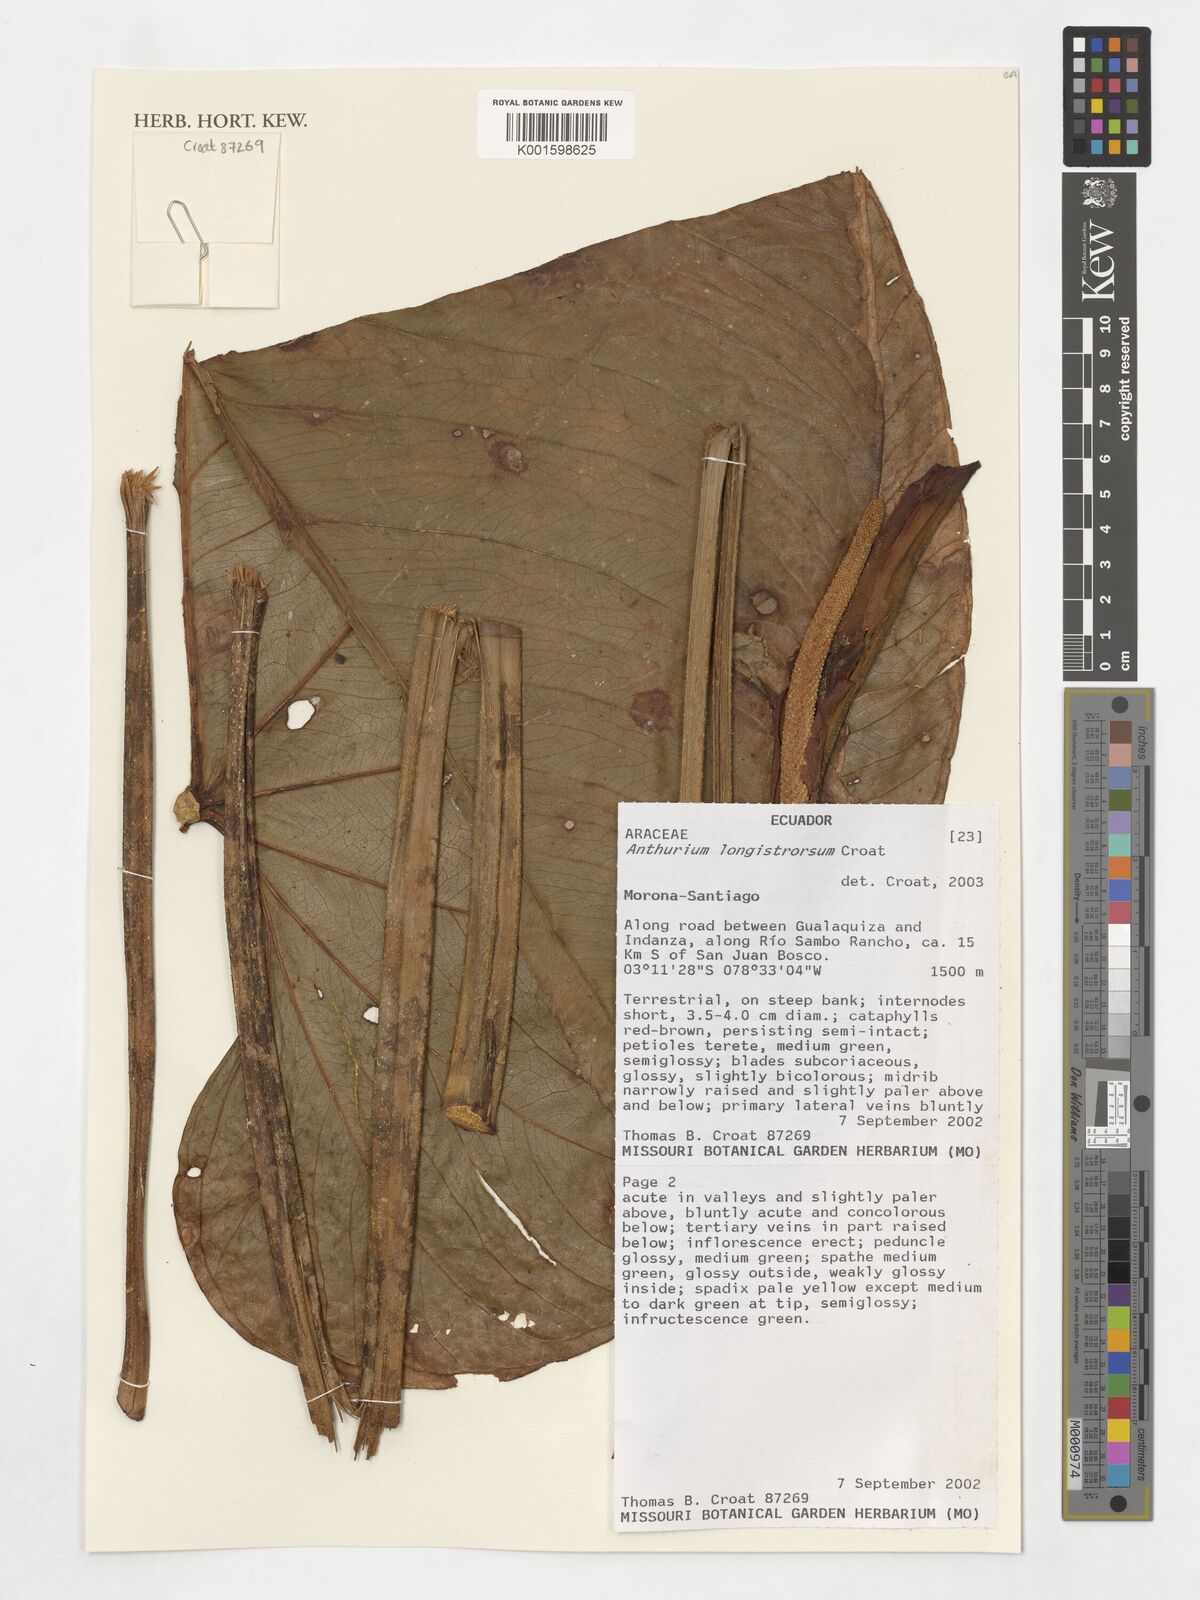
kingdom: Plantae
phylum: Tracheophyta
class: Liliopsida
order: Alismatales
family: Araceae
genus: Anthurium
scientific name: Anthurium
